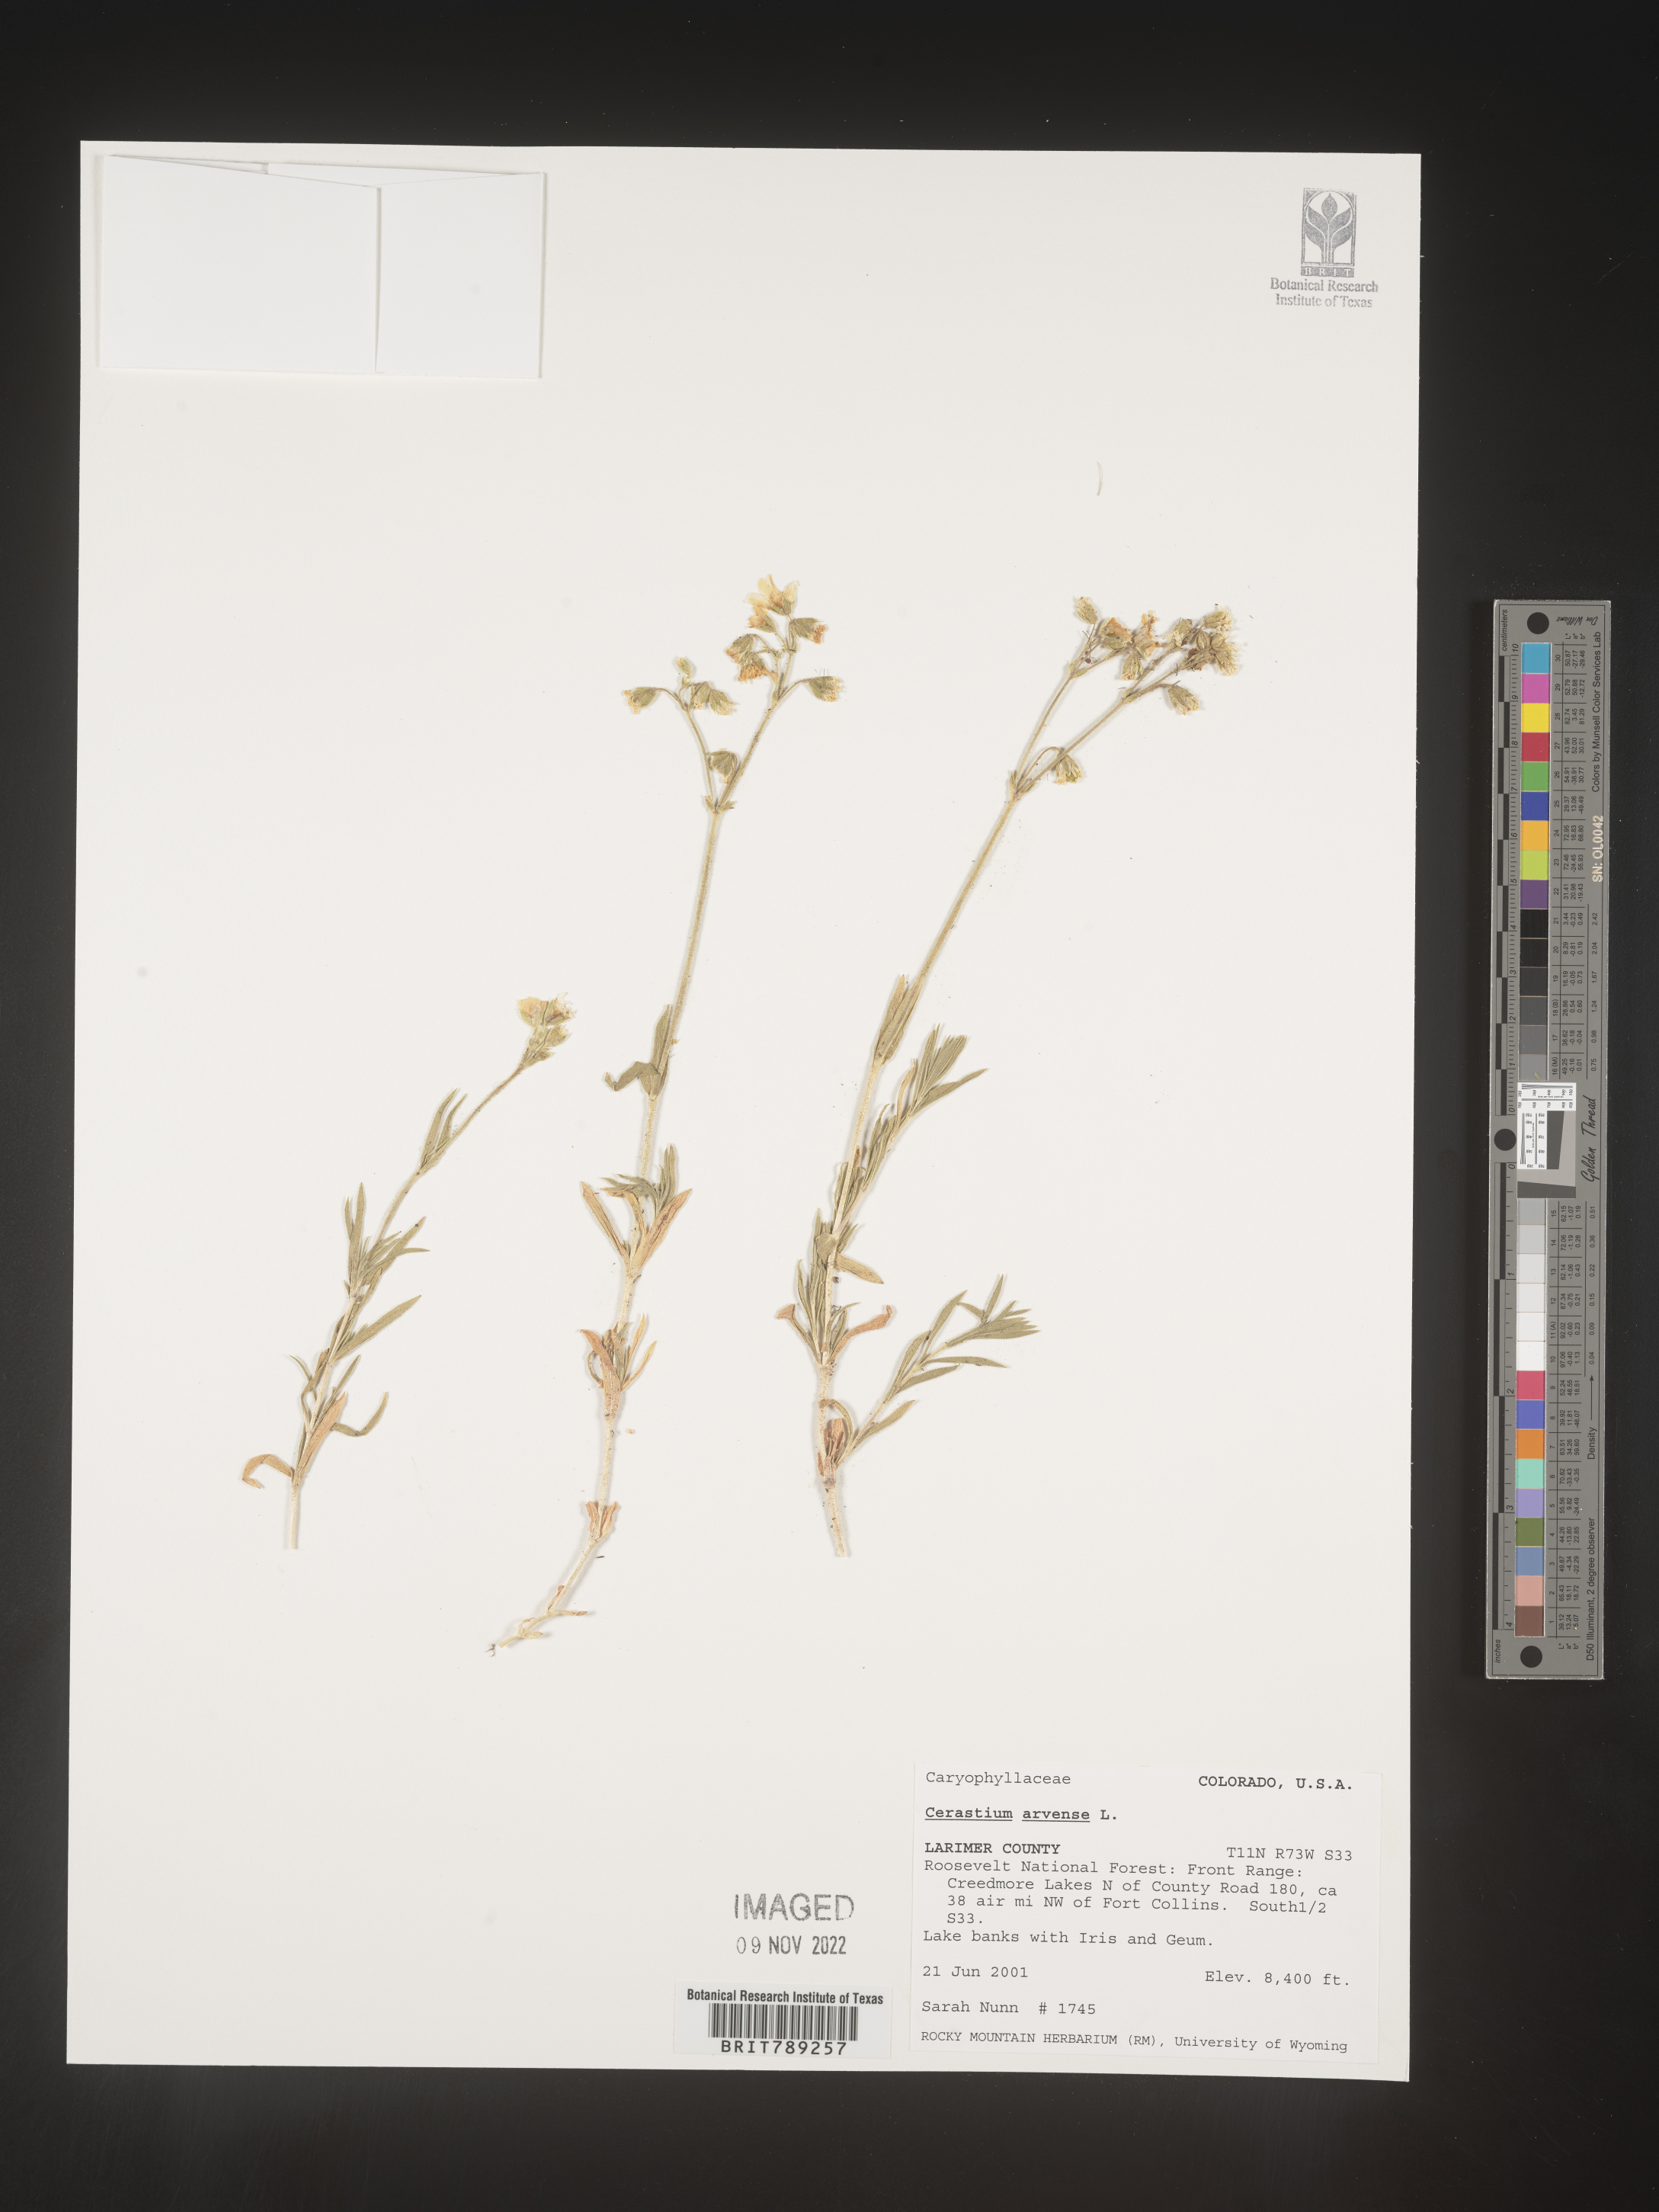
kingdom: Plantae
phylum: Tracheophyta
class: Magnoliopsida
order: Caryophyllales
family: Caryophyllaceae
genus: Cerastium
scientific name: Cerastium arvense
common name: Field mouse-ear
